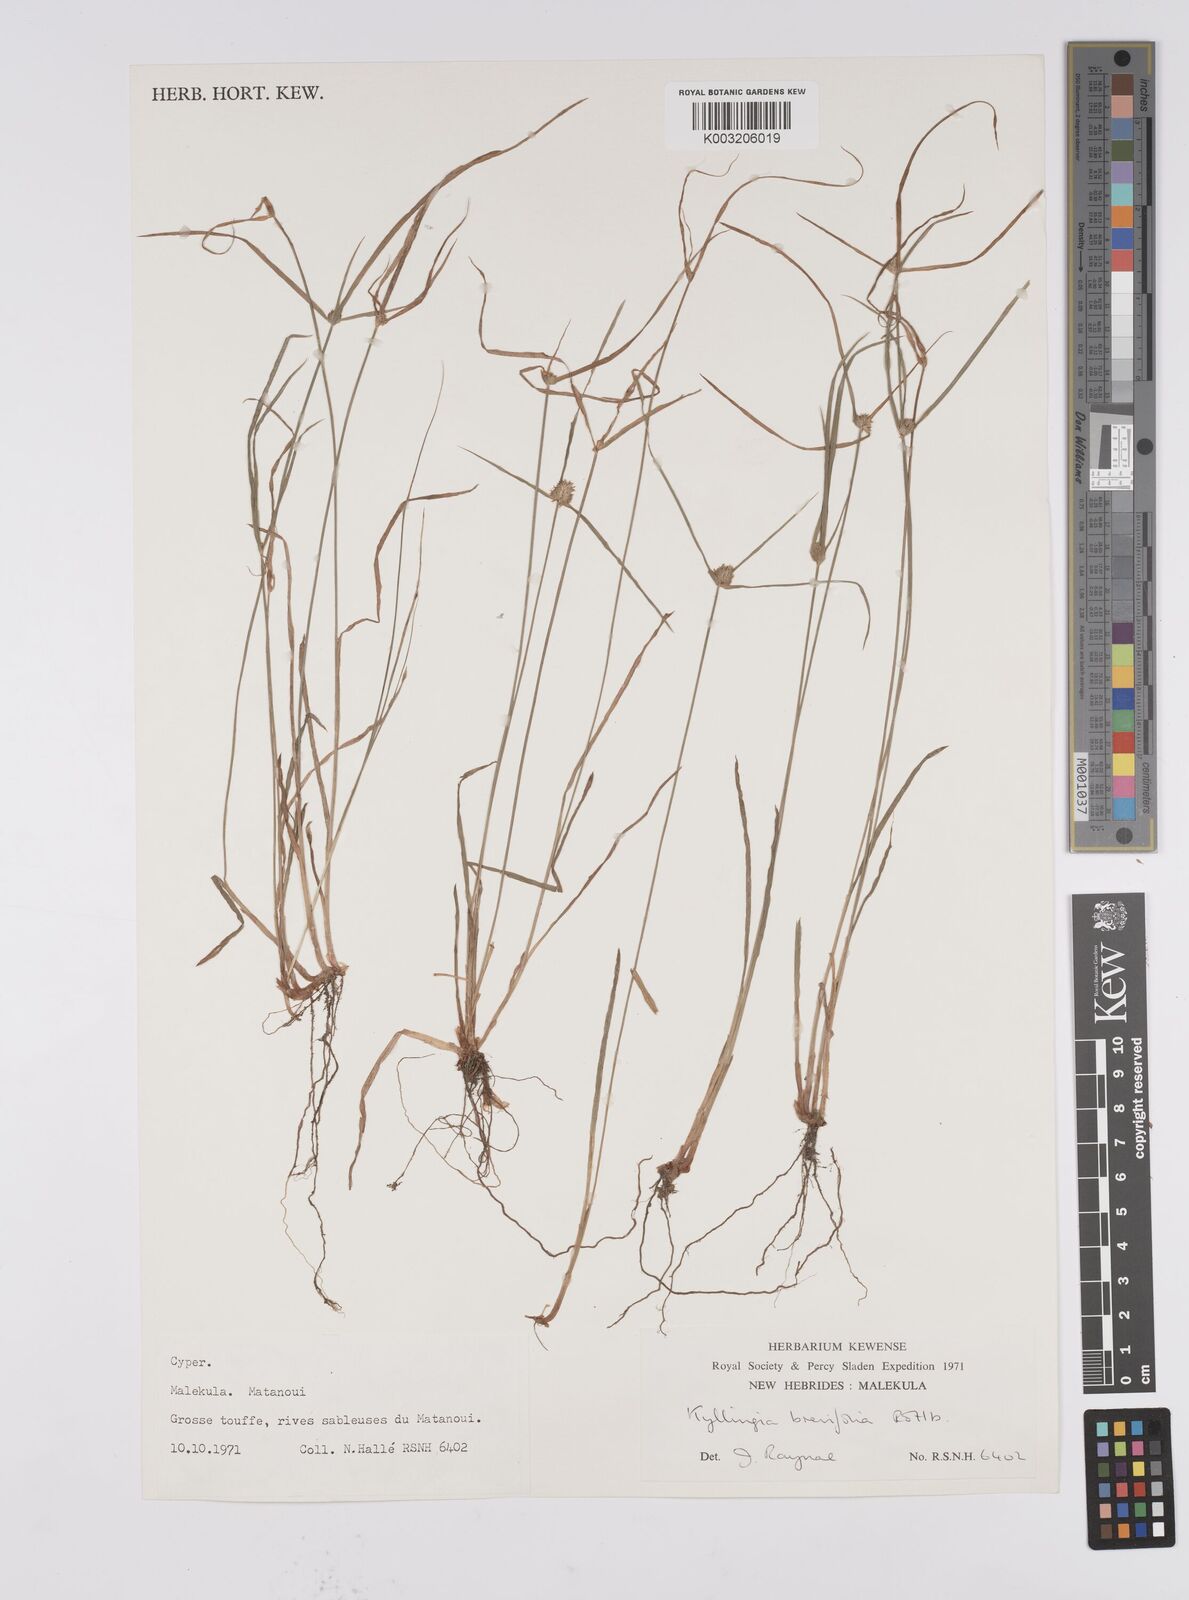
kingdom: Plantae
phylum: Tracheophyta
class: Liliopsida
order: Poales
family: Cyperaceae
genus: Cyperus
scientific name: Cyperus brevifolius
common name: Globe kyllinga
